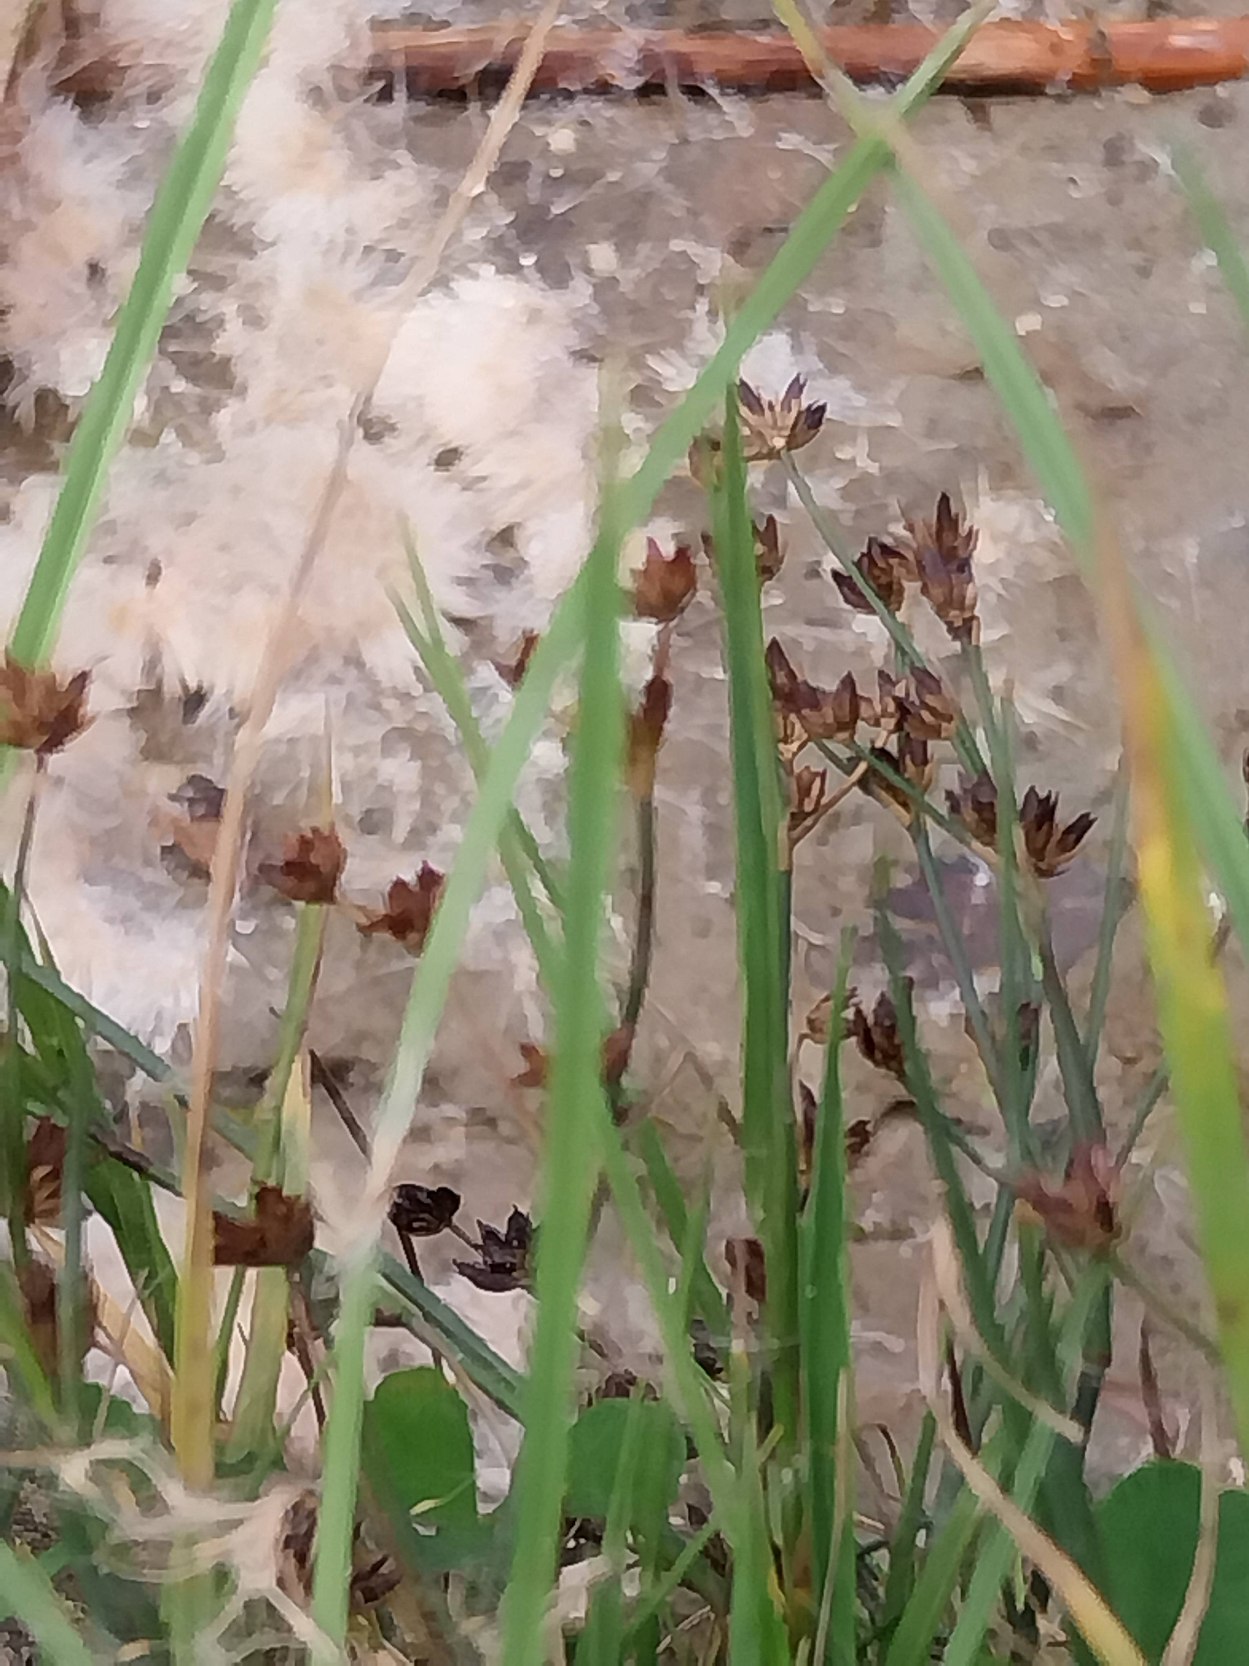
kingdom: Plantae
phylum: Tracheophyta
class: Liliopsida
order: Poales
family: Juncaceae
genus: Juncus
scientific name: Juncus articulatus
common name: Glanskapslet siv
